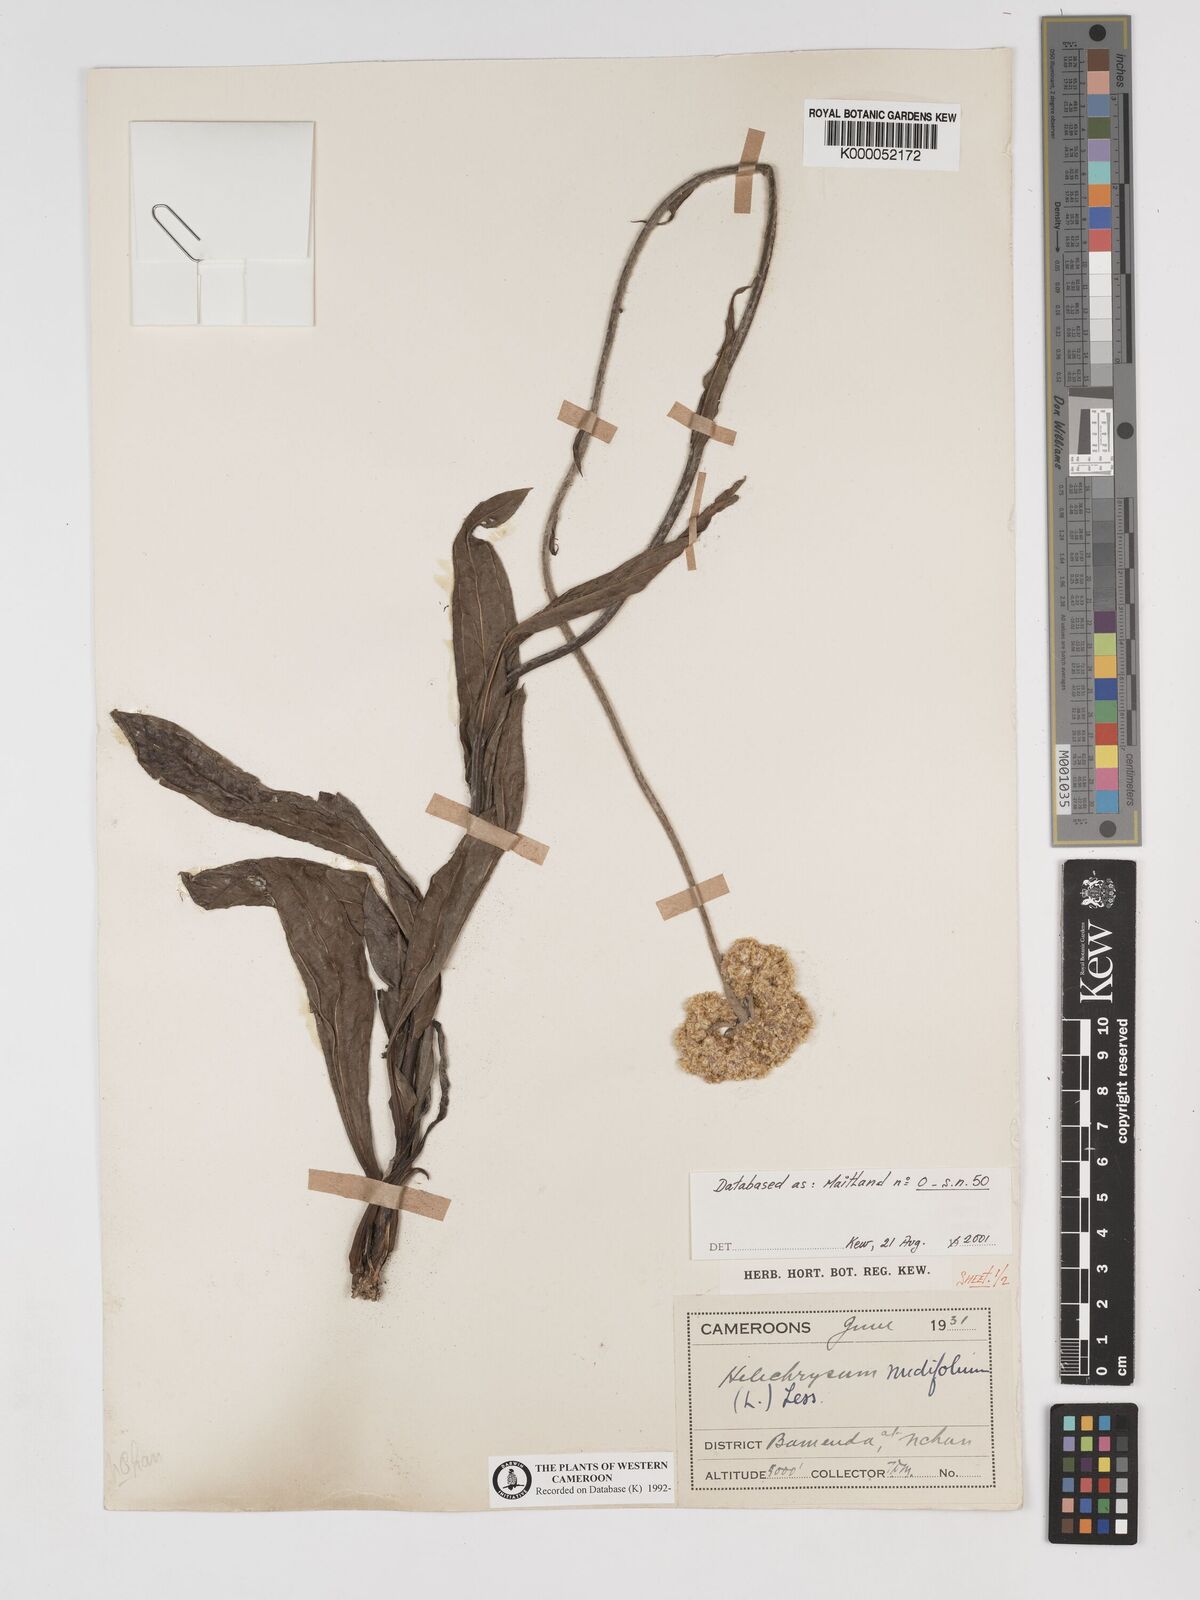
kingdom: Plantae
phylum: Tracheophyta
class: Magnoliopsida
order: Asterales
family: Asteraceae
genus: Helichrysum
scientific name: Helichrysum nudifolium
